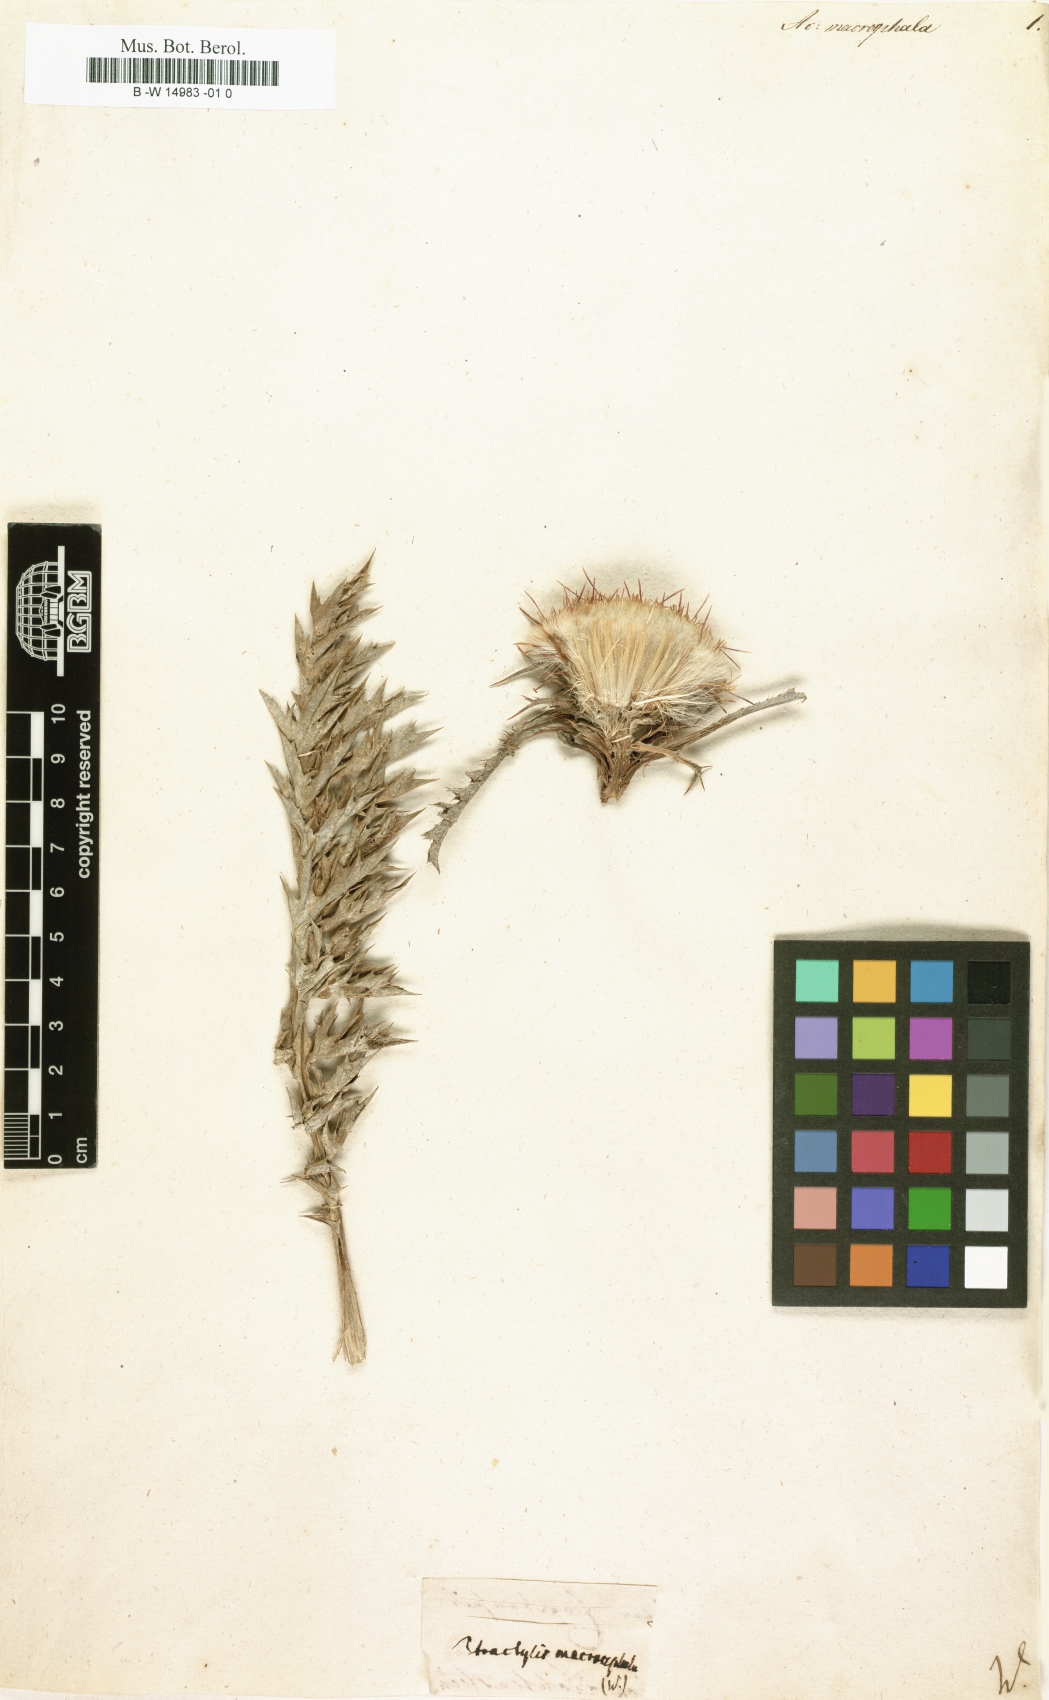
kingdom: Plantae
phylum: Tracheophyta
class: Magnoliopsida
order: Asterales
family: Asteraceae
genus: Chamaeleon
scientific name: Chamaeleon gummifer
